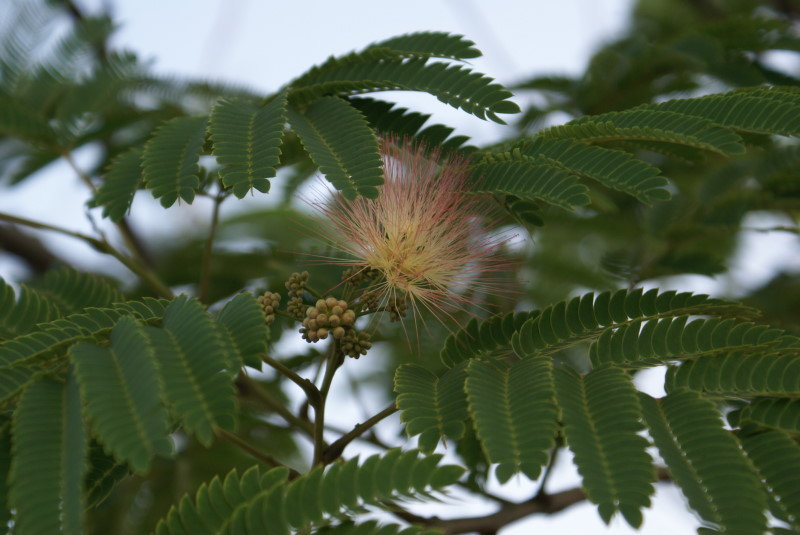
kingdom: Plantae
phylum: Tracheophyta
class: Magnoliopsida
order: Fabales
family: Fabaceae
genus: Albizia
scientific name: Albizia julibrissin
